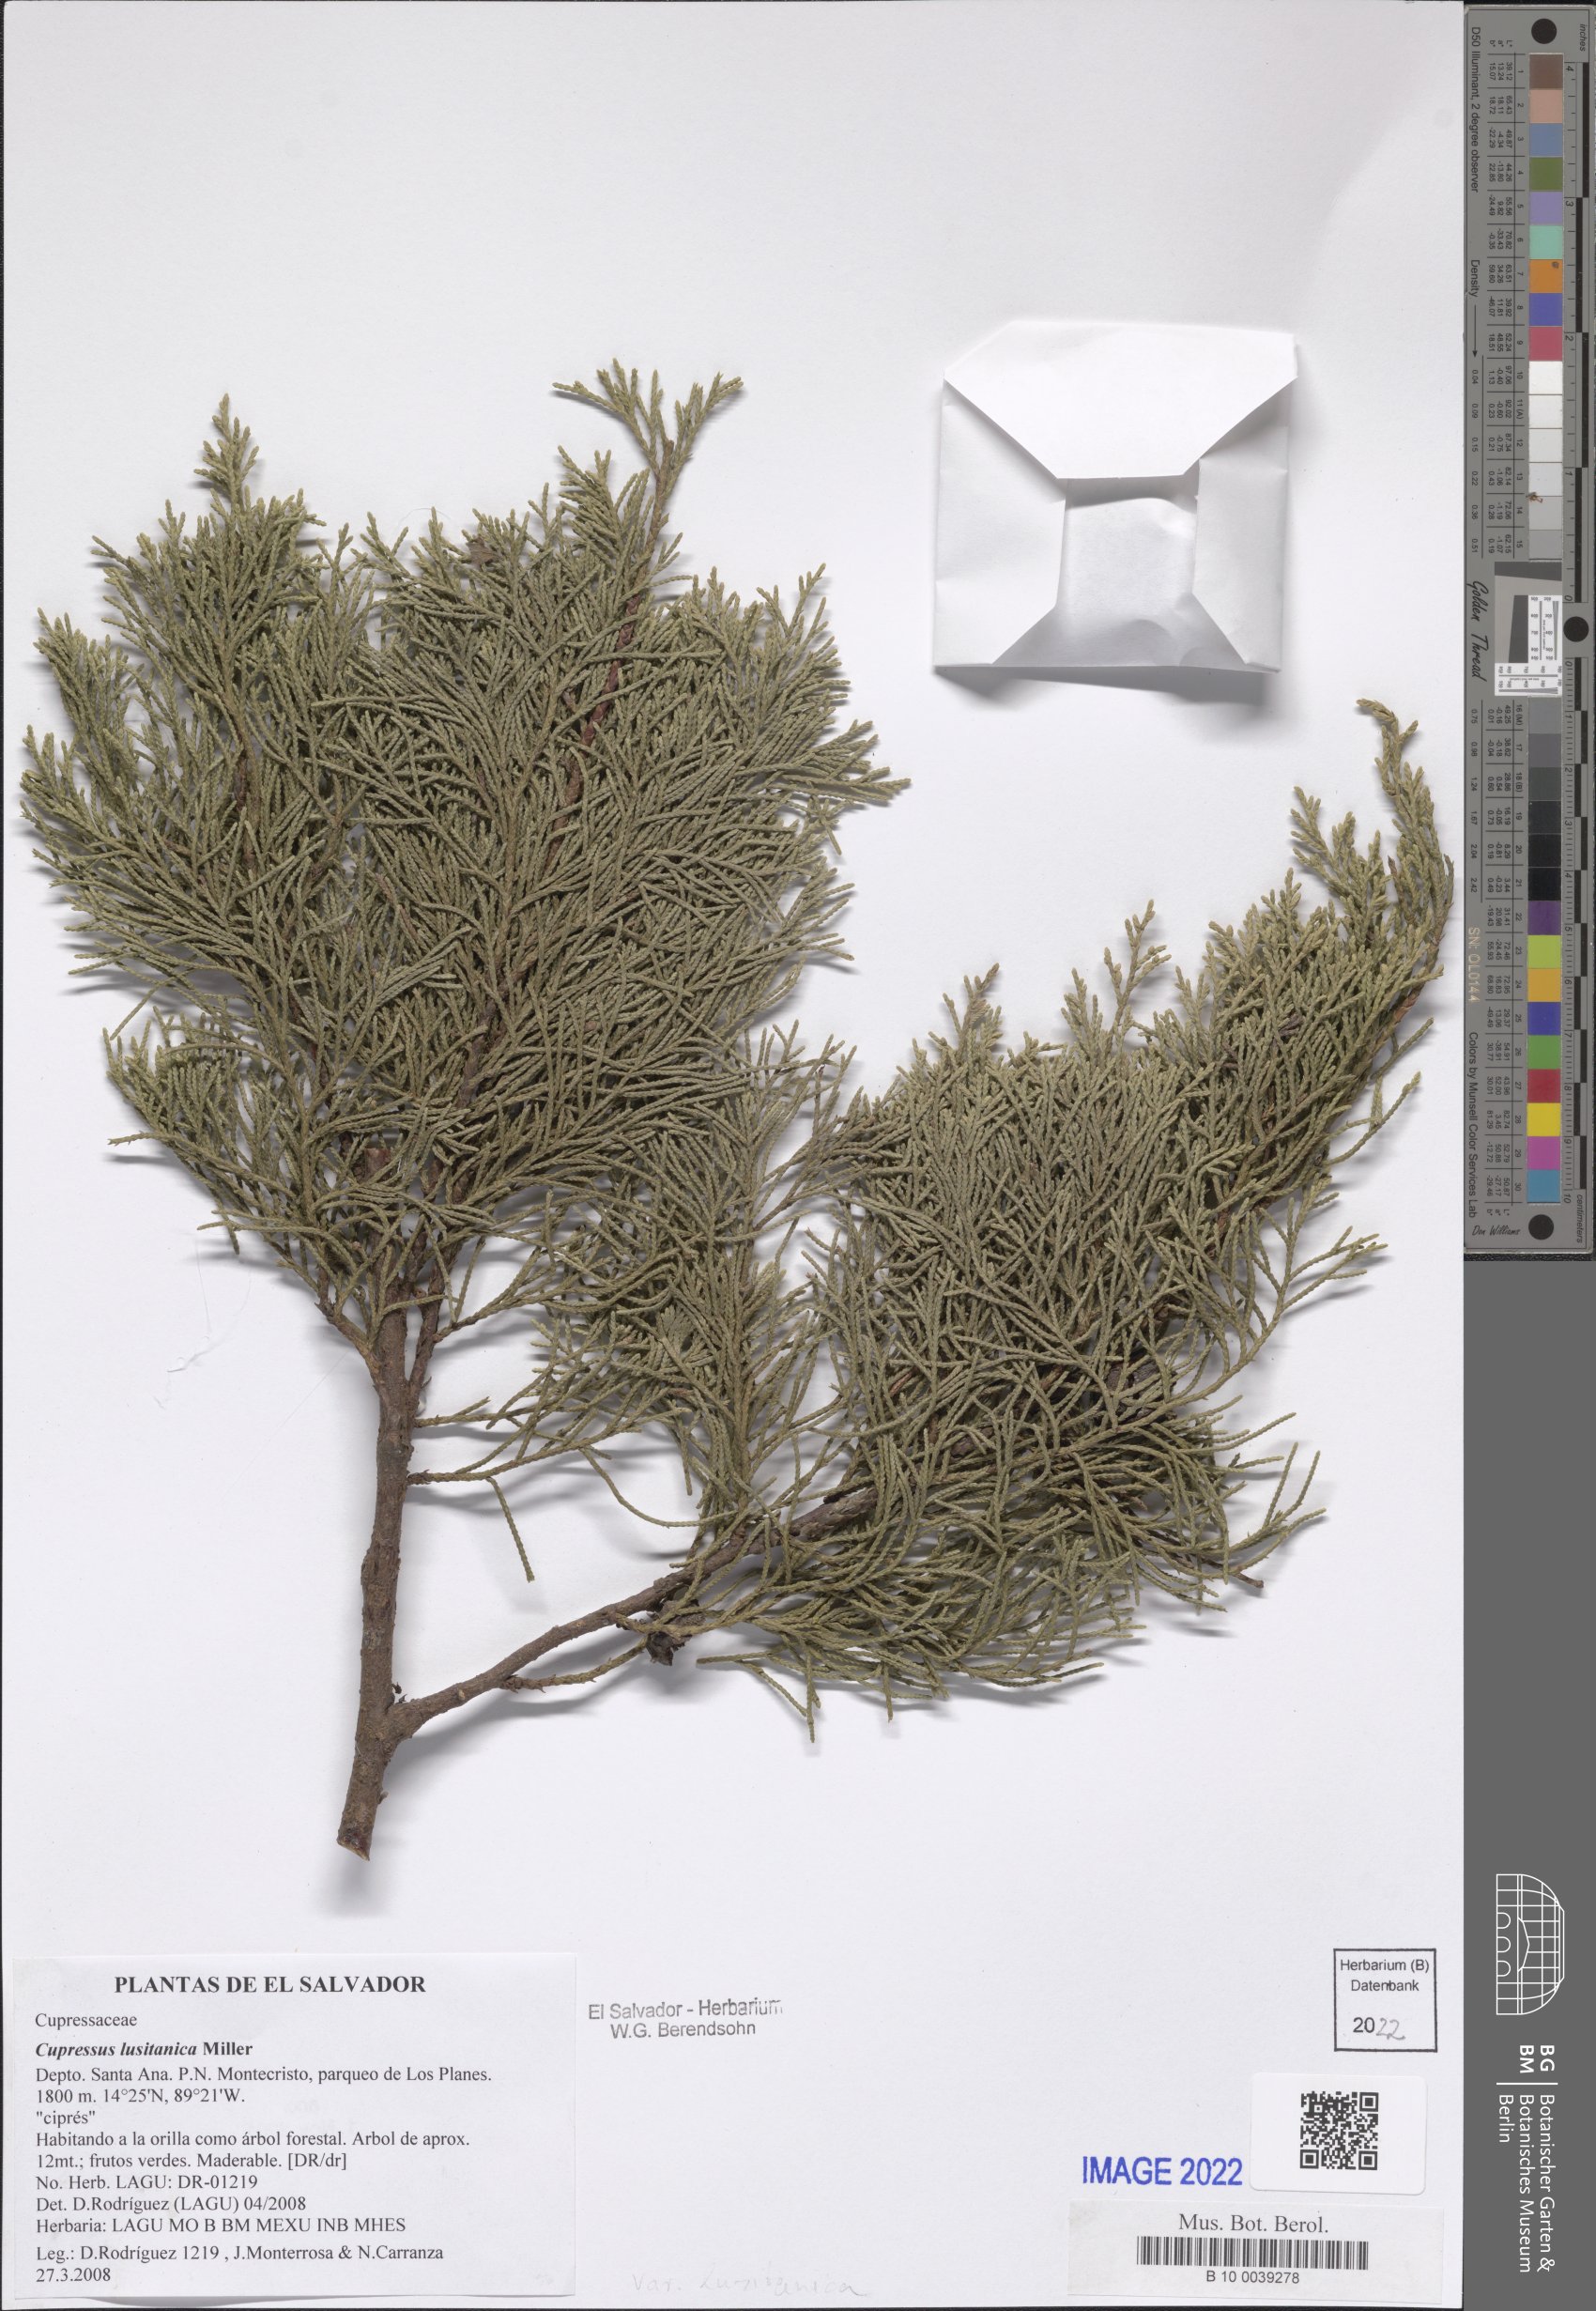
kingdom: Plantae
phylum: Tracheophyta
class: Pinopsida
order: Pinales
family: Cupressaceae
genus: Cupressus
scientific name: Cupressus lusitanica
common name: Mexican cypress
